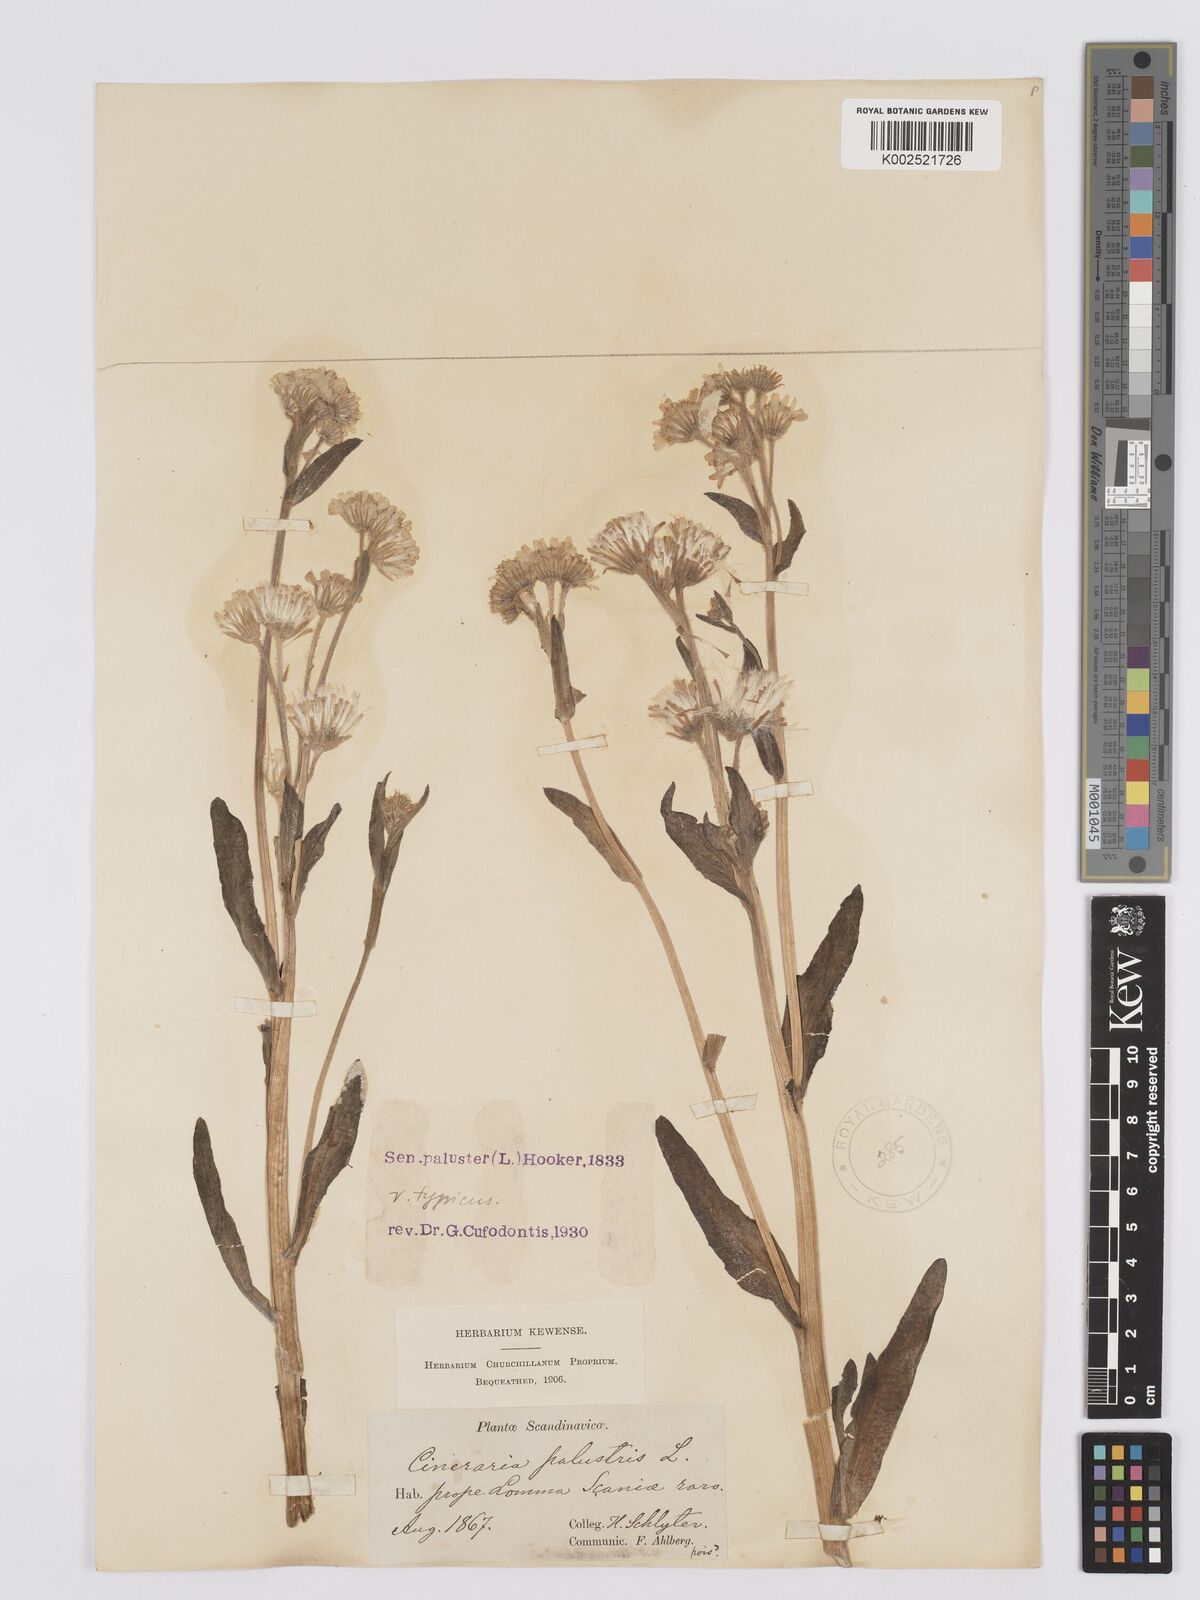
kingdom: Plantae
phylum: Tracheophyta
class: Magnoliopsida
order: Asterales
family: Asteraceae
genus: Tephroseris
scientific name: Tephroseris palustris
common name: Marsh fleawort
